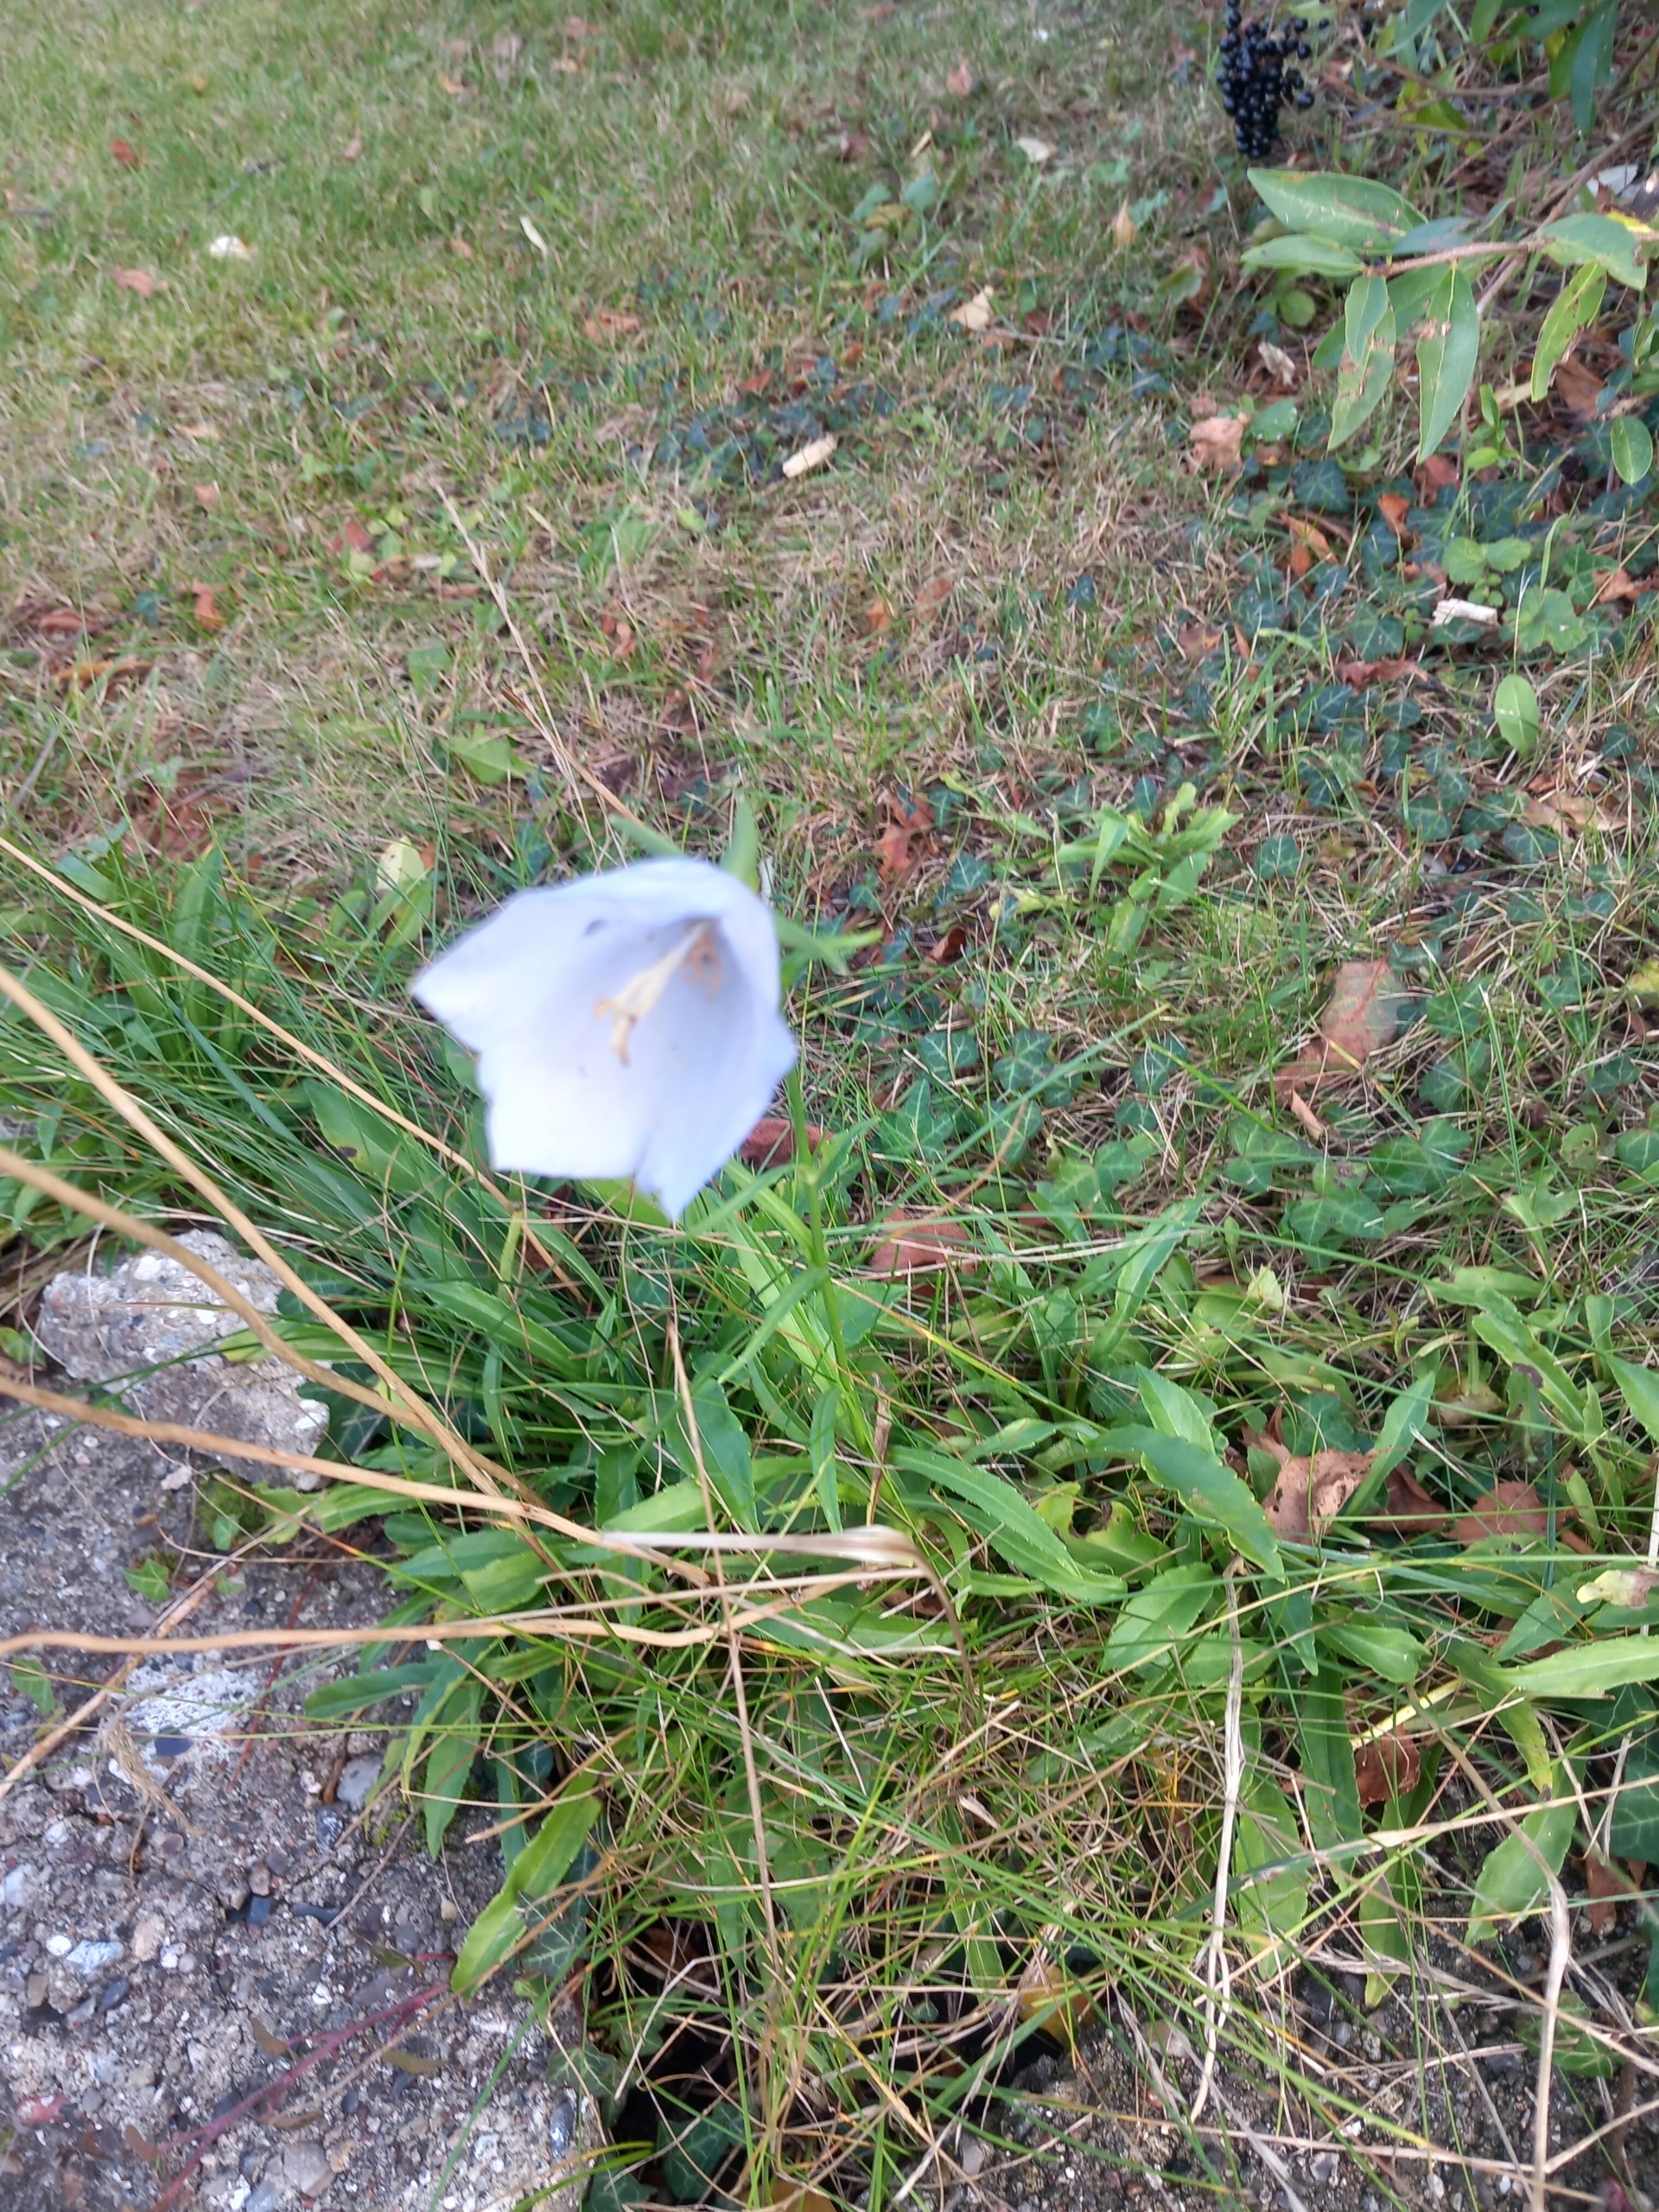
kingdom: Plantae
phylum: Tracheophyta
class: Magnoliopsida
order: Asterales
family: Campanulaceae
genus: Campanula
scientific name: Campanula persicifolia
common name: Smalbladet klokke
